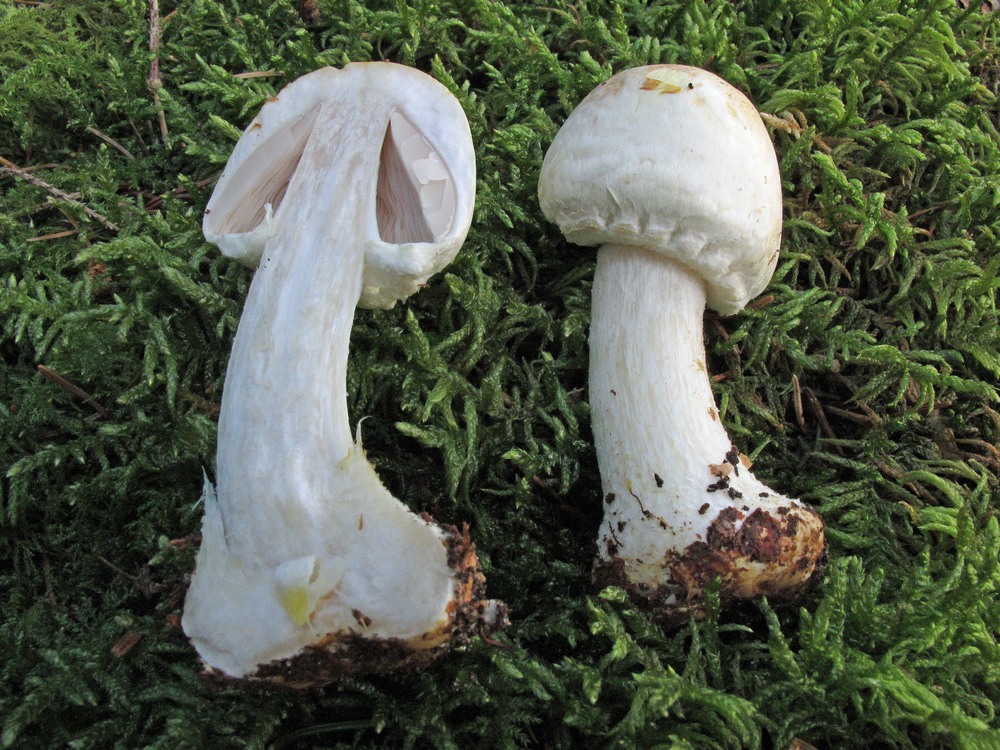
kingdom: Fungi
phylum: Basidiomycota
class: Agaricomycetes
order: Agaricales
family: Agaricaceae
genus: Agaricus
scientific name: Agaricus sylvicola
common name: skiveknoldet champignon
